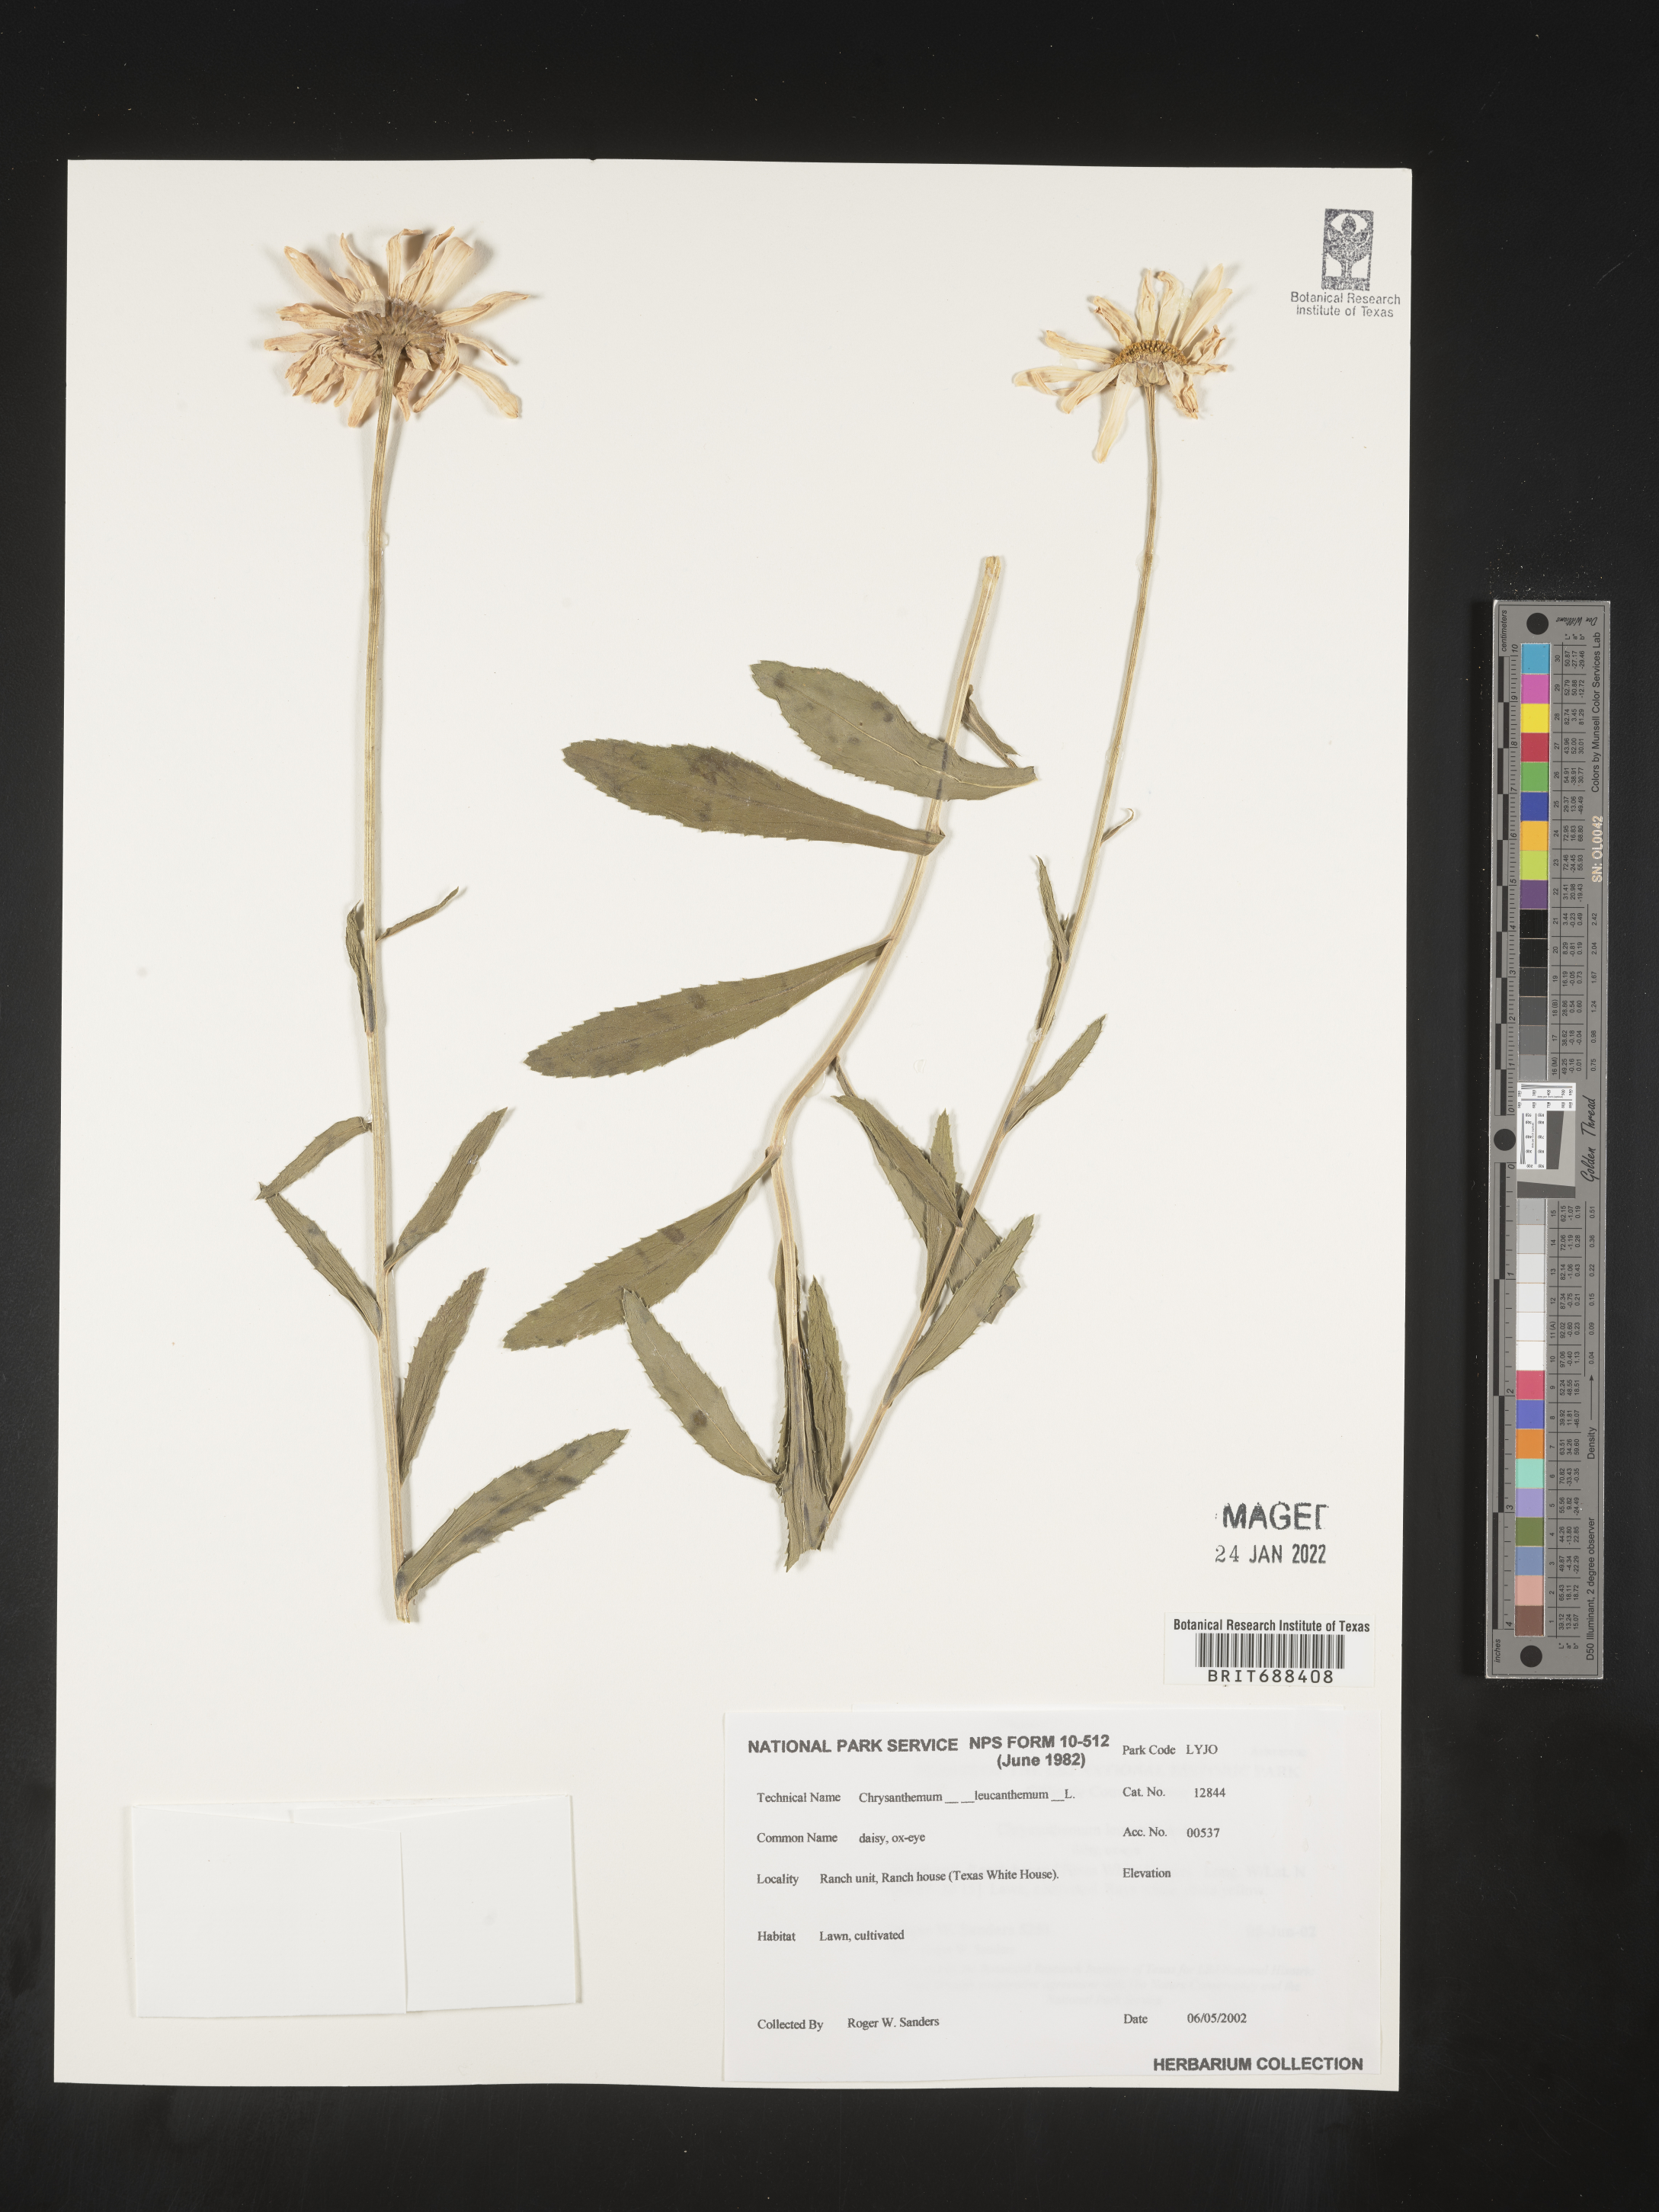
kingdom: Plantae
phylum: Tracheophyta
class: Magnoliopsida
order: Asterales
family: Asteraceae
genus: Chrysanthemum
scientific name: Chrysanthemum
